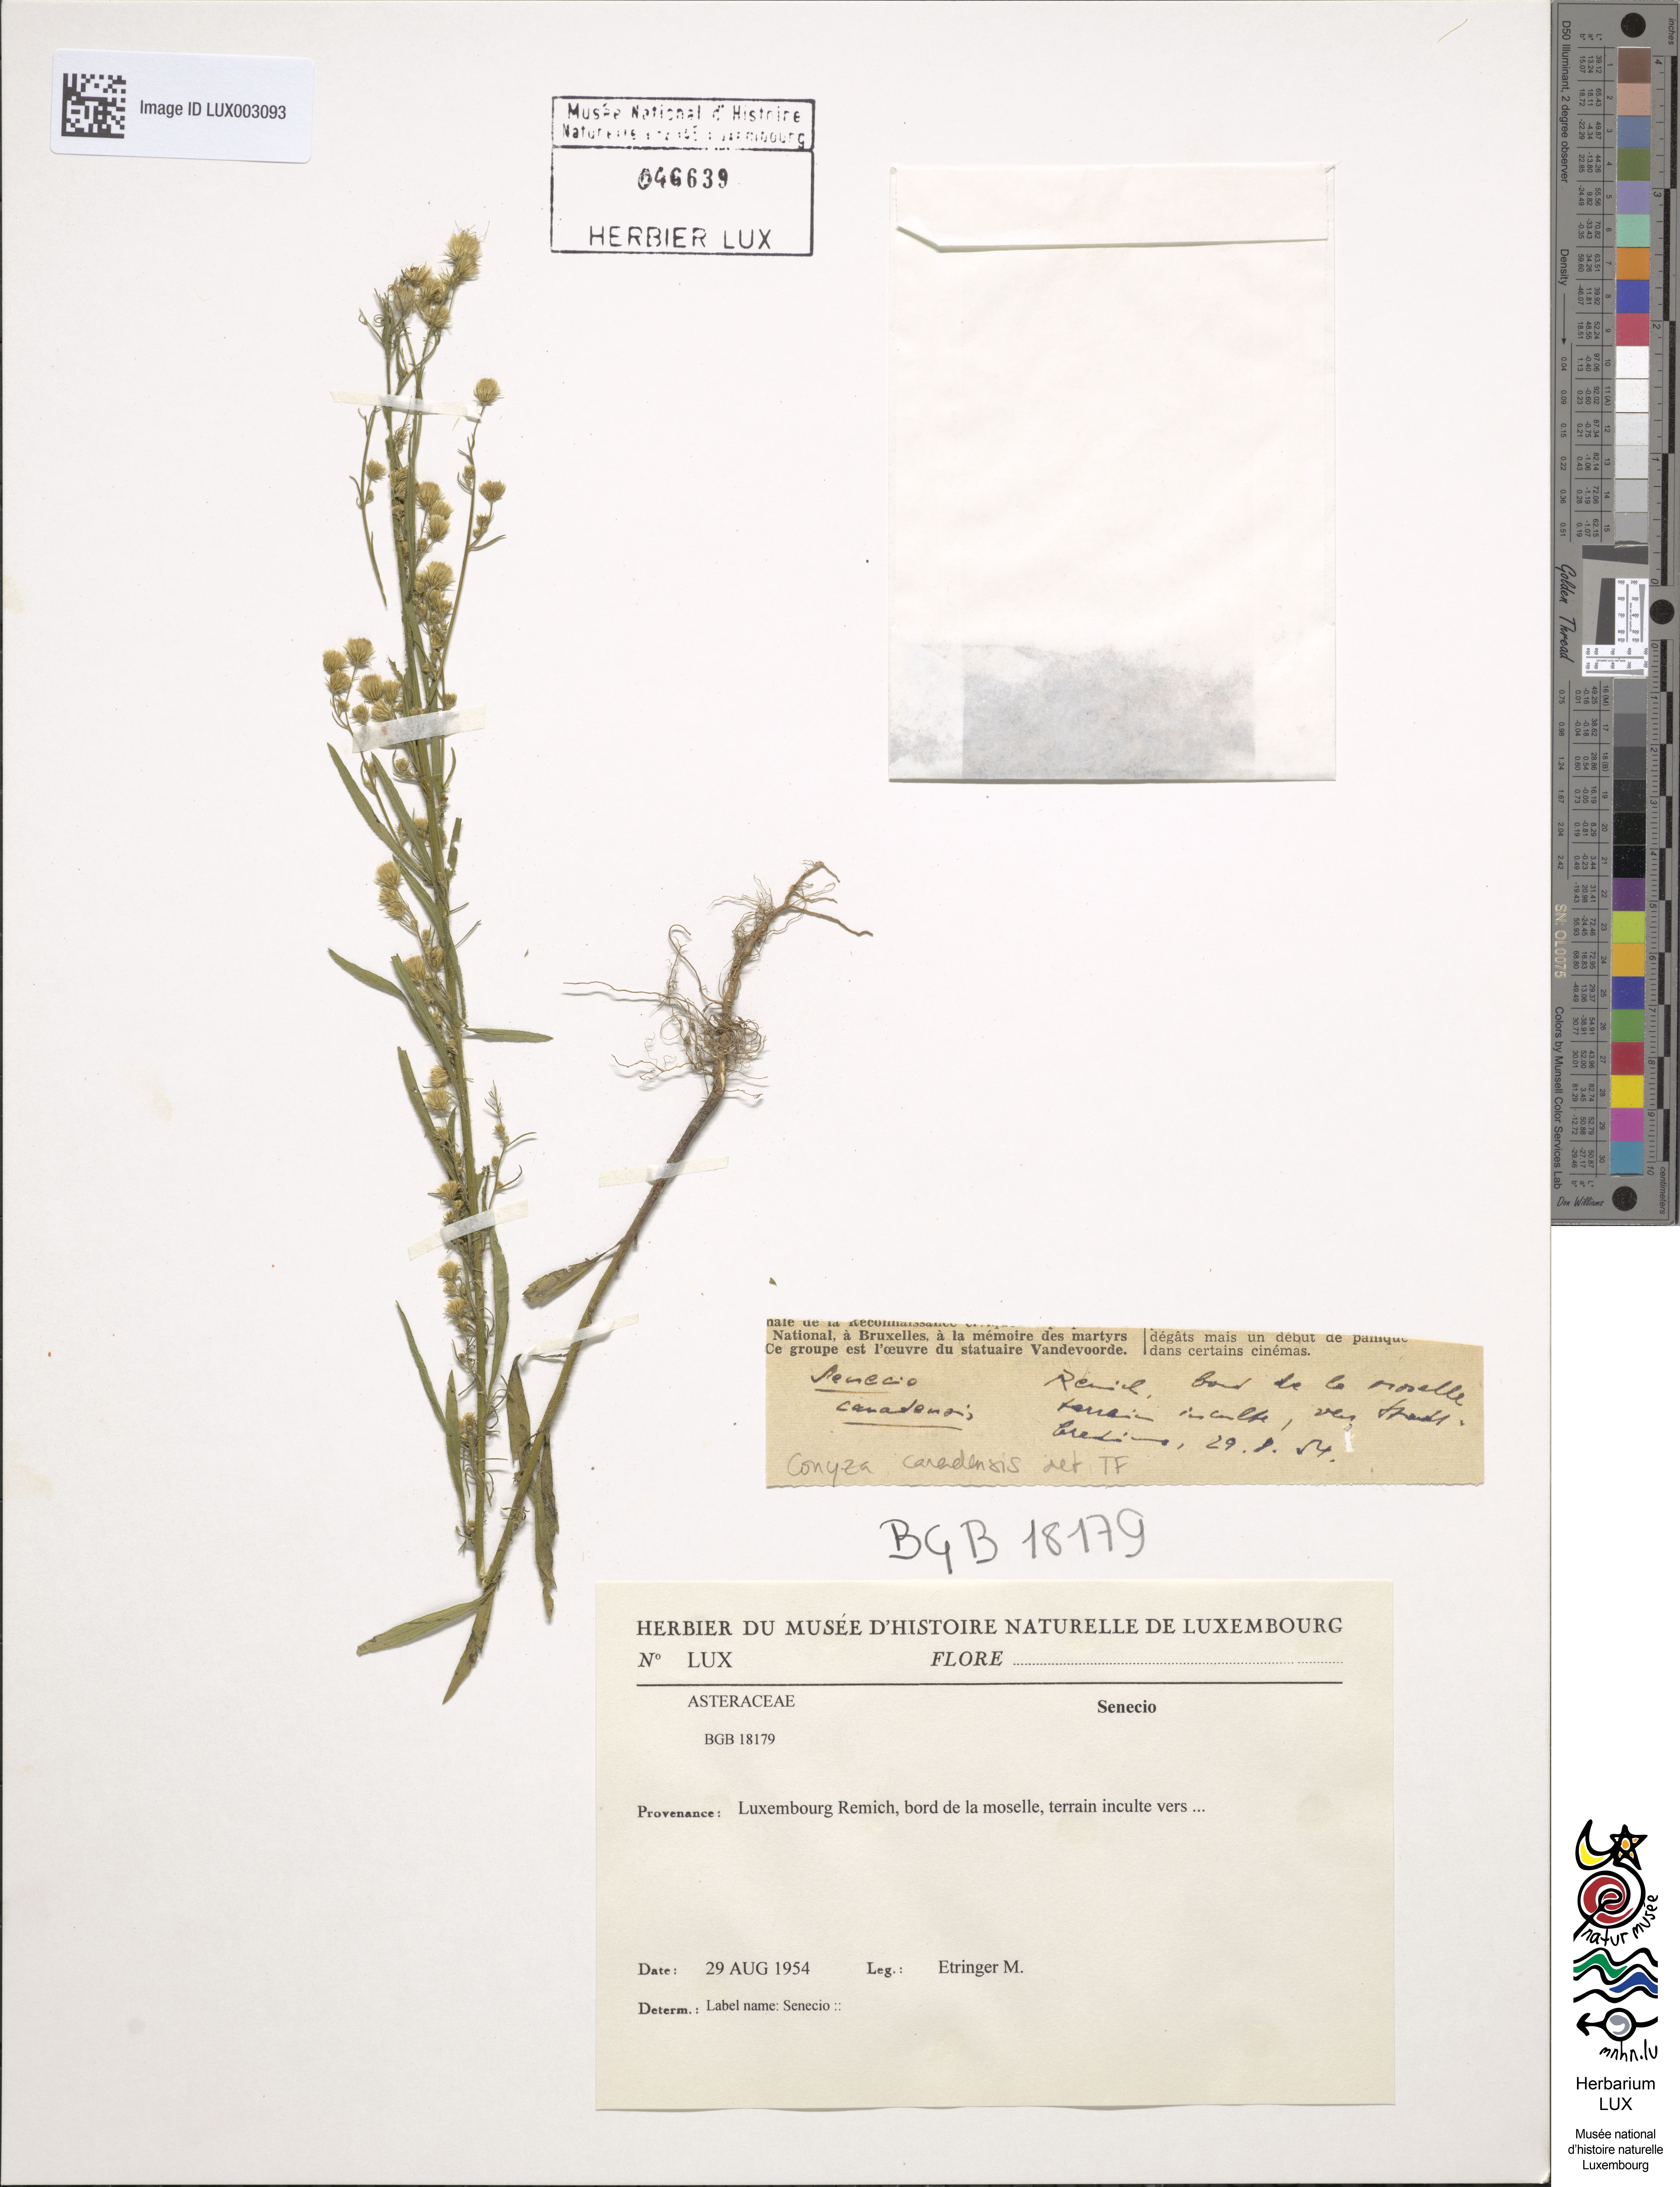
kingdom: Plantae
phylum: Tracheophyta
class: Magnoliopsida
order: Asterales
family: Asteraceae
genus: Erigeron
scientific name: Erigeron canadensis
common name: Canadian fleabane
